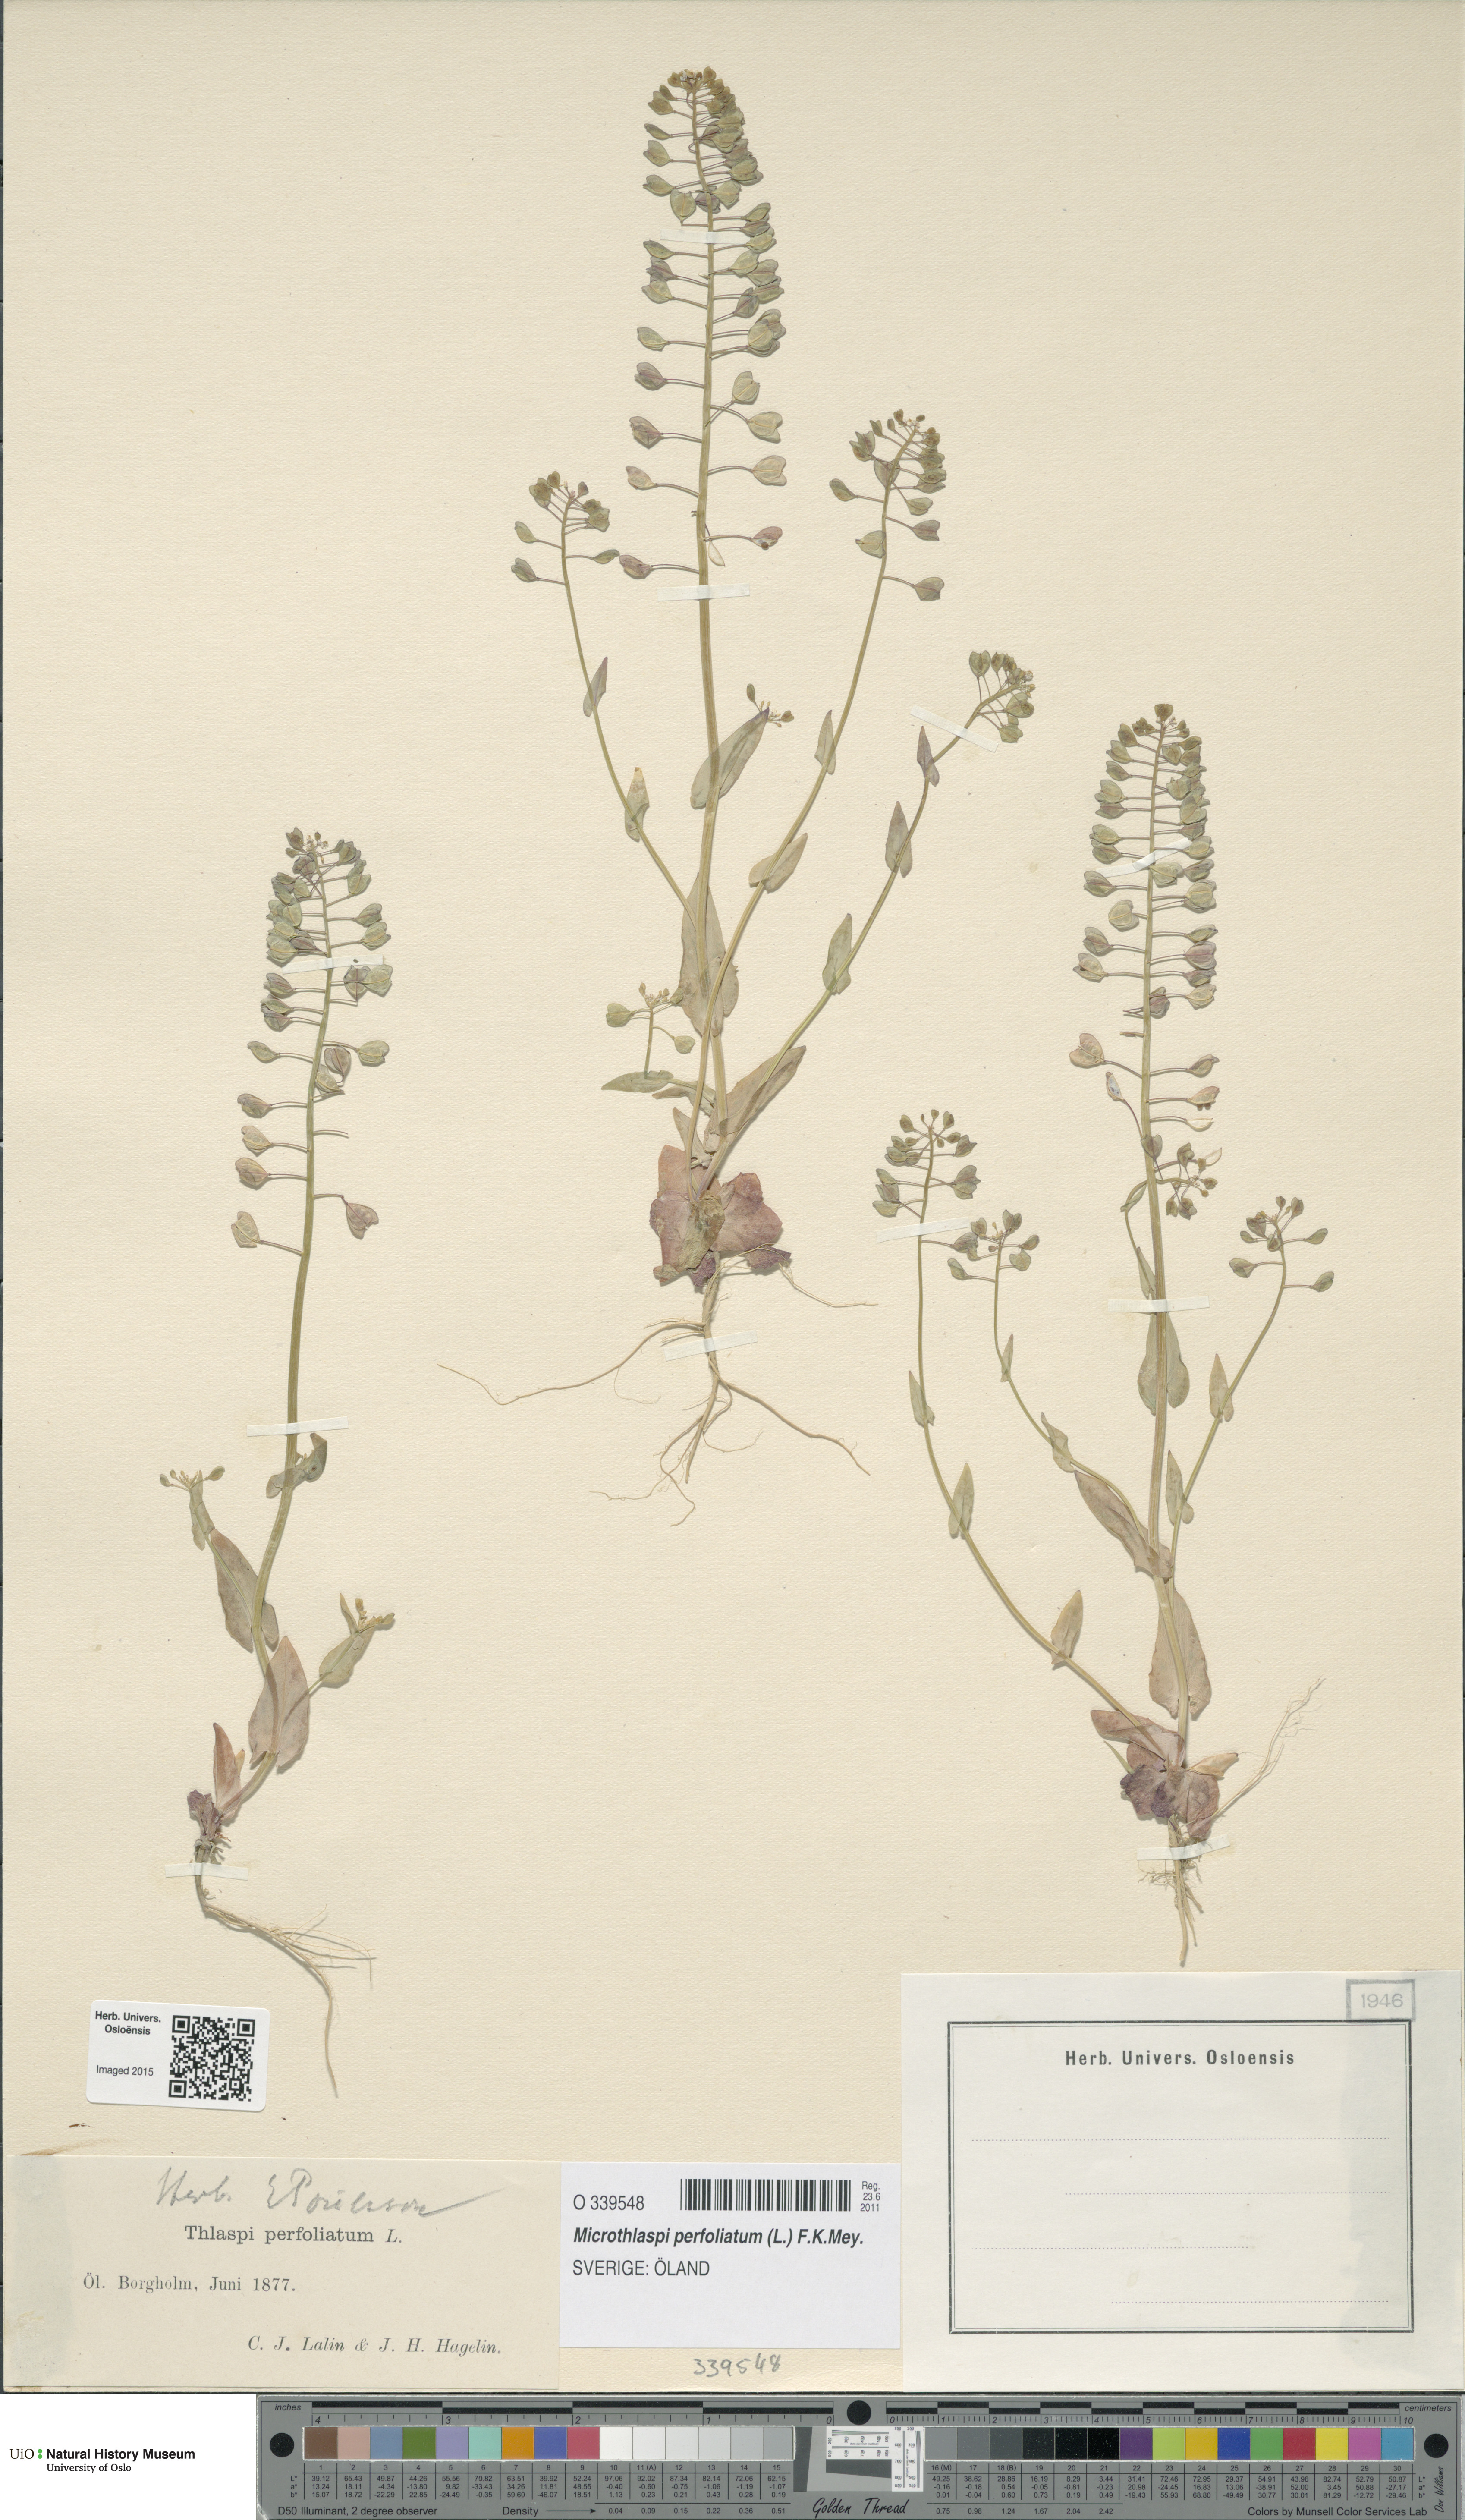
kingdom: Plantae
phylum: Tracheophyta
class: Magnoliopsida
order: Brassicales
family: Brassicaceae
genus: Noccaea
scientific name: Noccaea perfoliata
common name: Perfoliate pennycress
